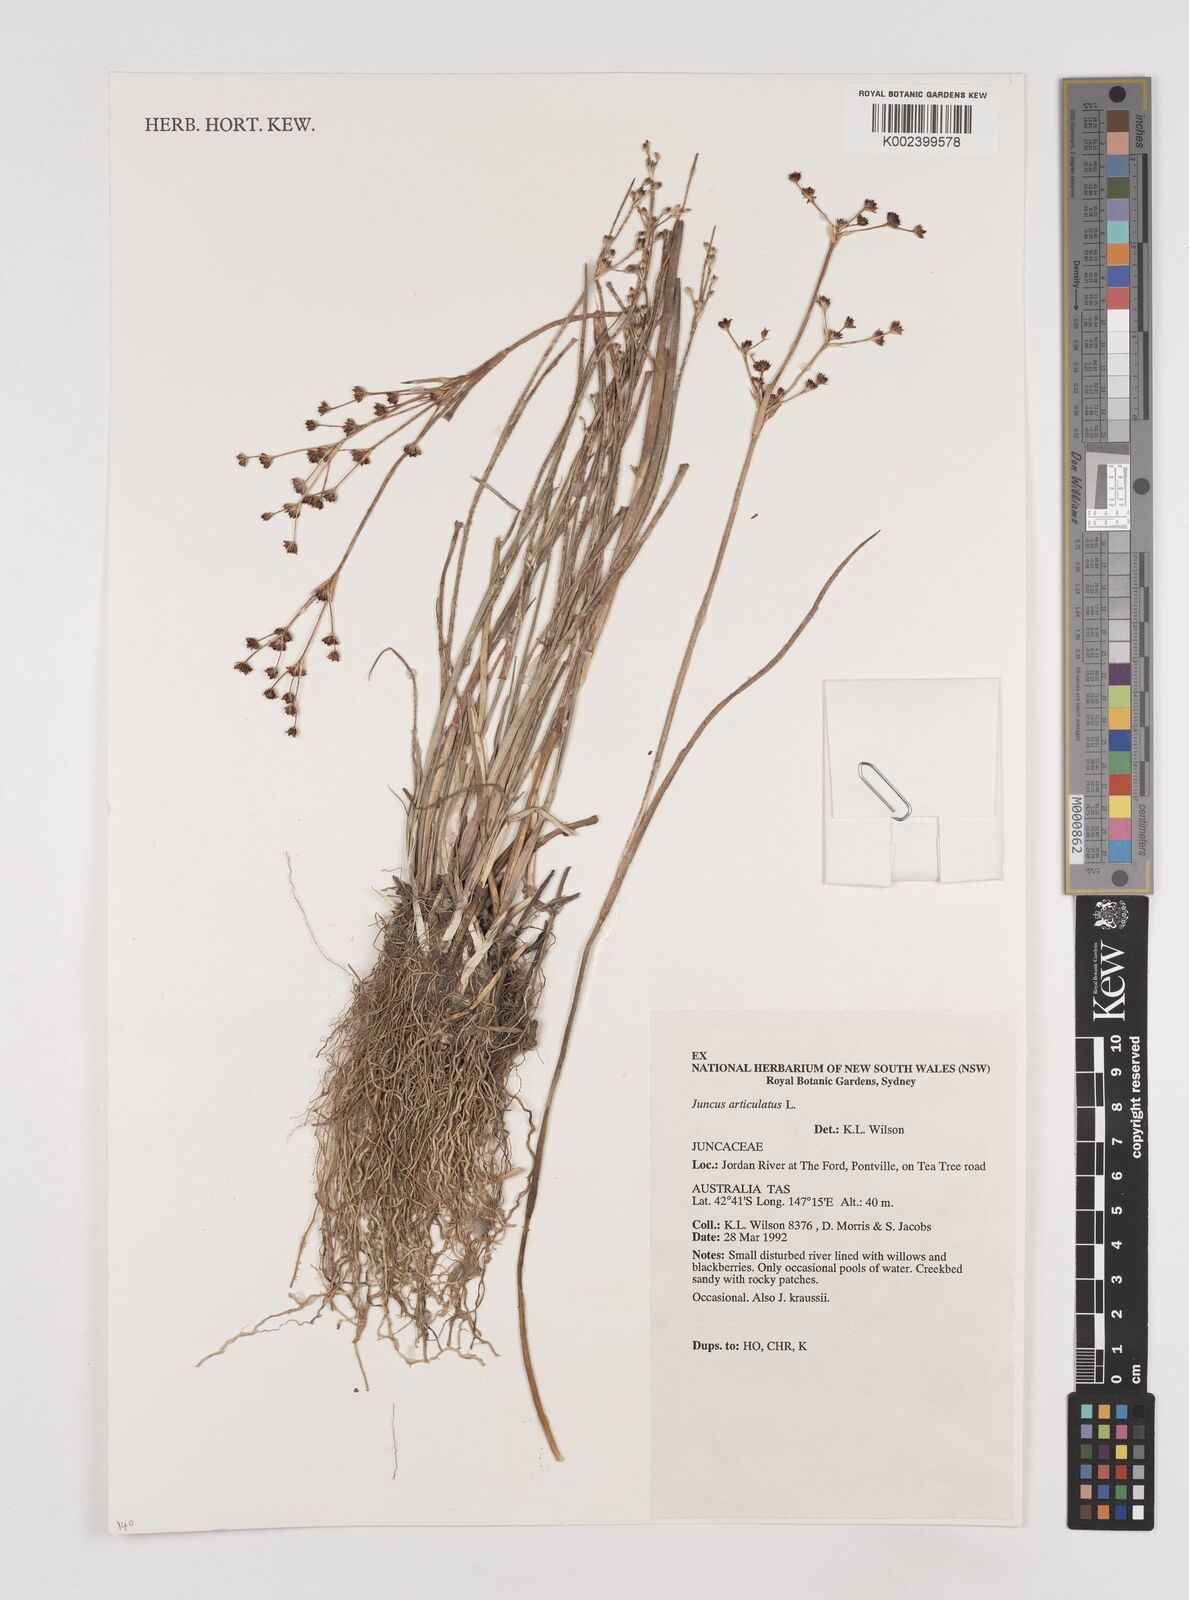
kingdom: Plantae
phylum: Tracheophyta
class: Liliopsida
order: Poales
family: Juncaceae
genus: Juncus
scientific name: Juncus articulatus
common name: Jointed rush
